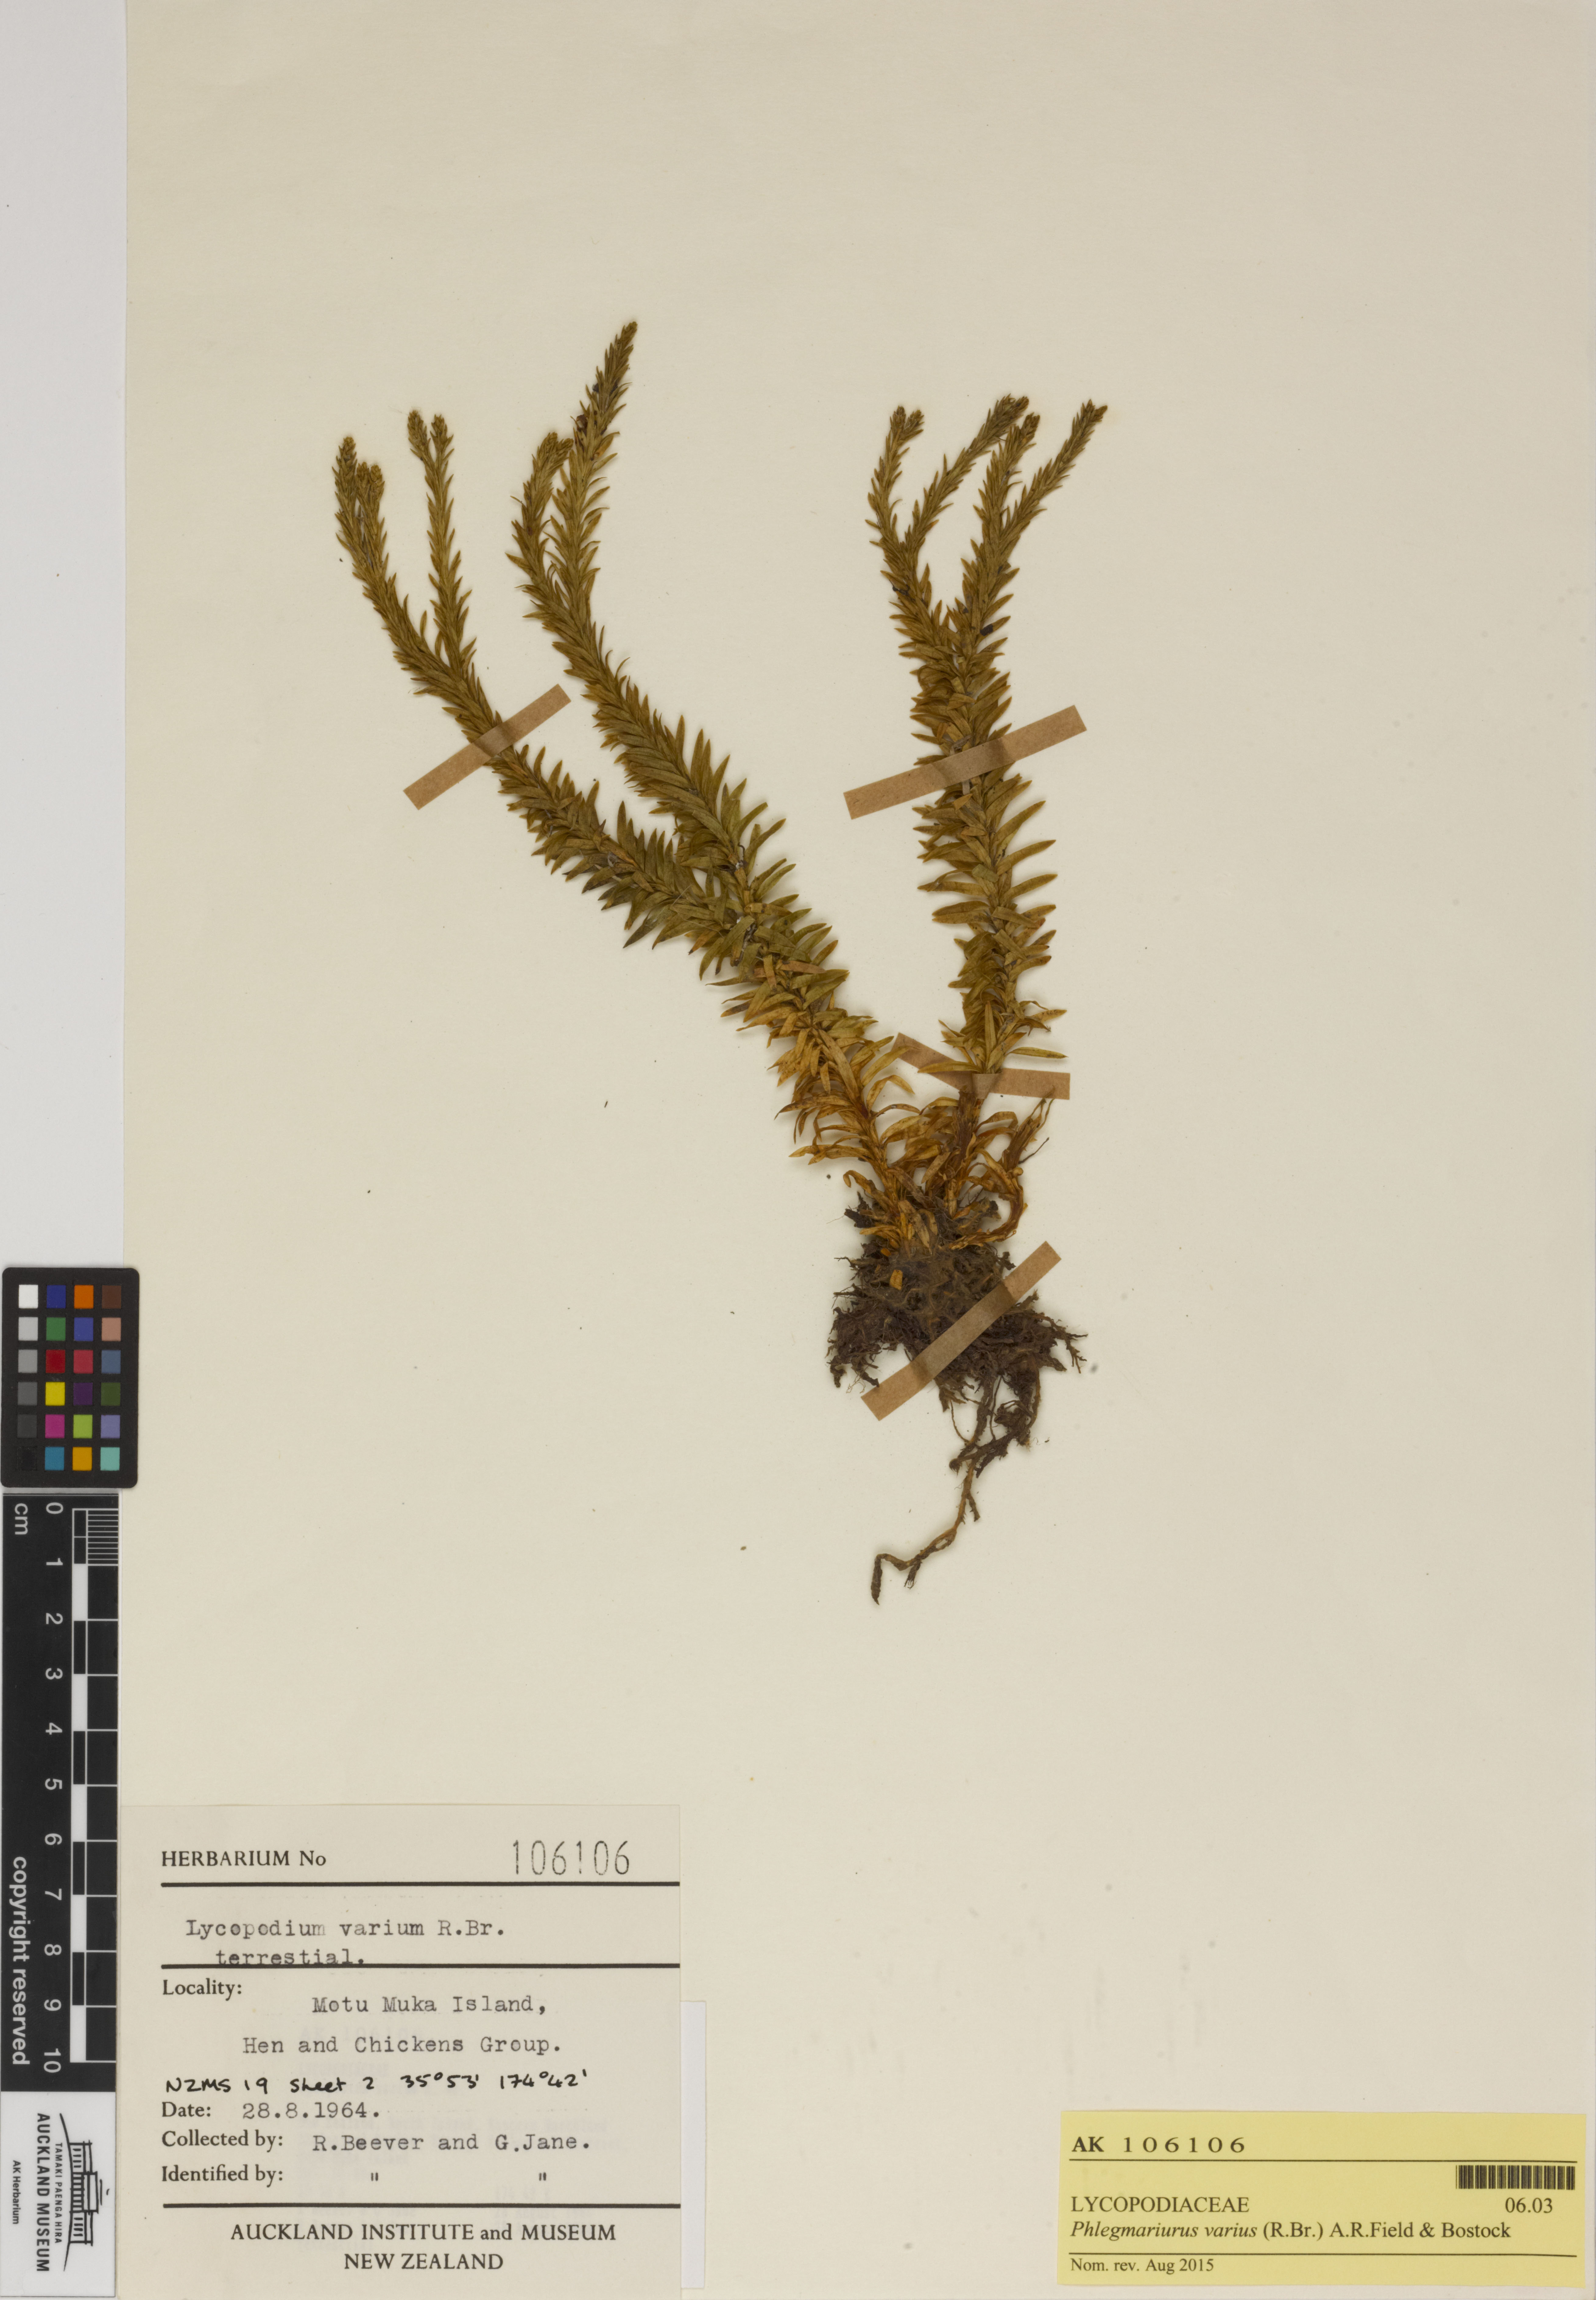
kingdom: Plantae
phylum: Tracheophyta
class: Lycopodiopsida
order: Lycopodiales
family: Lycopodiaceae
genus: Phlegmariurus
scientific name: Phlegmariurus
